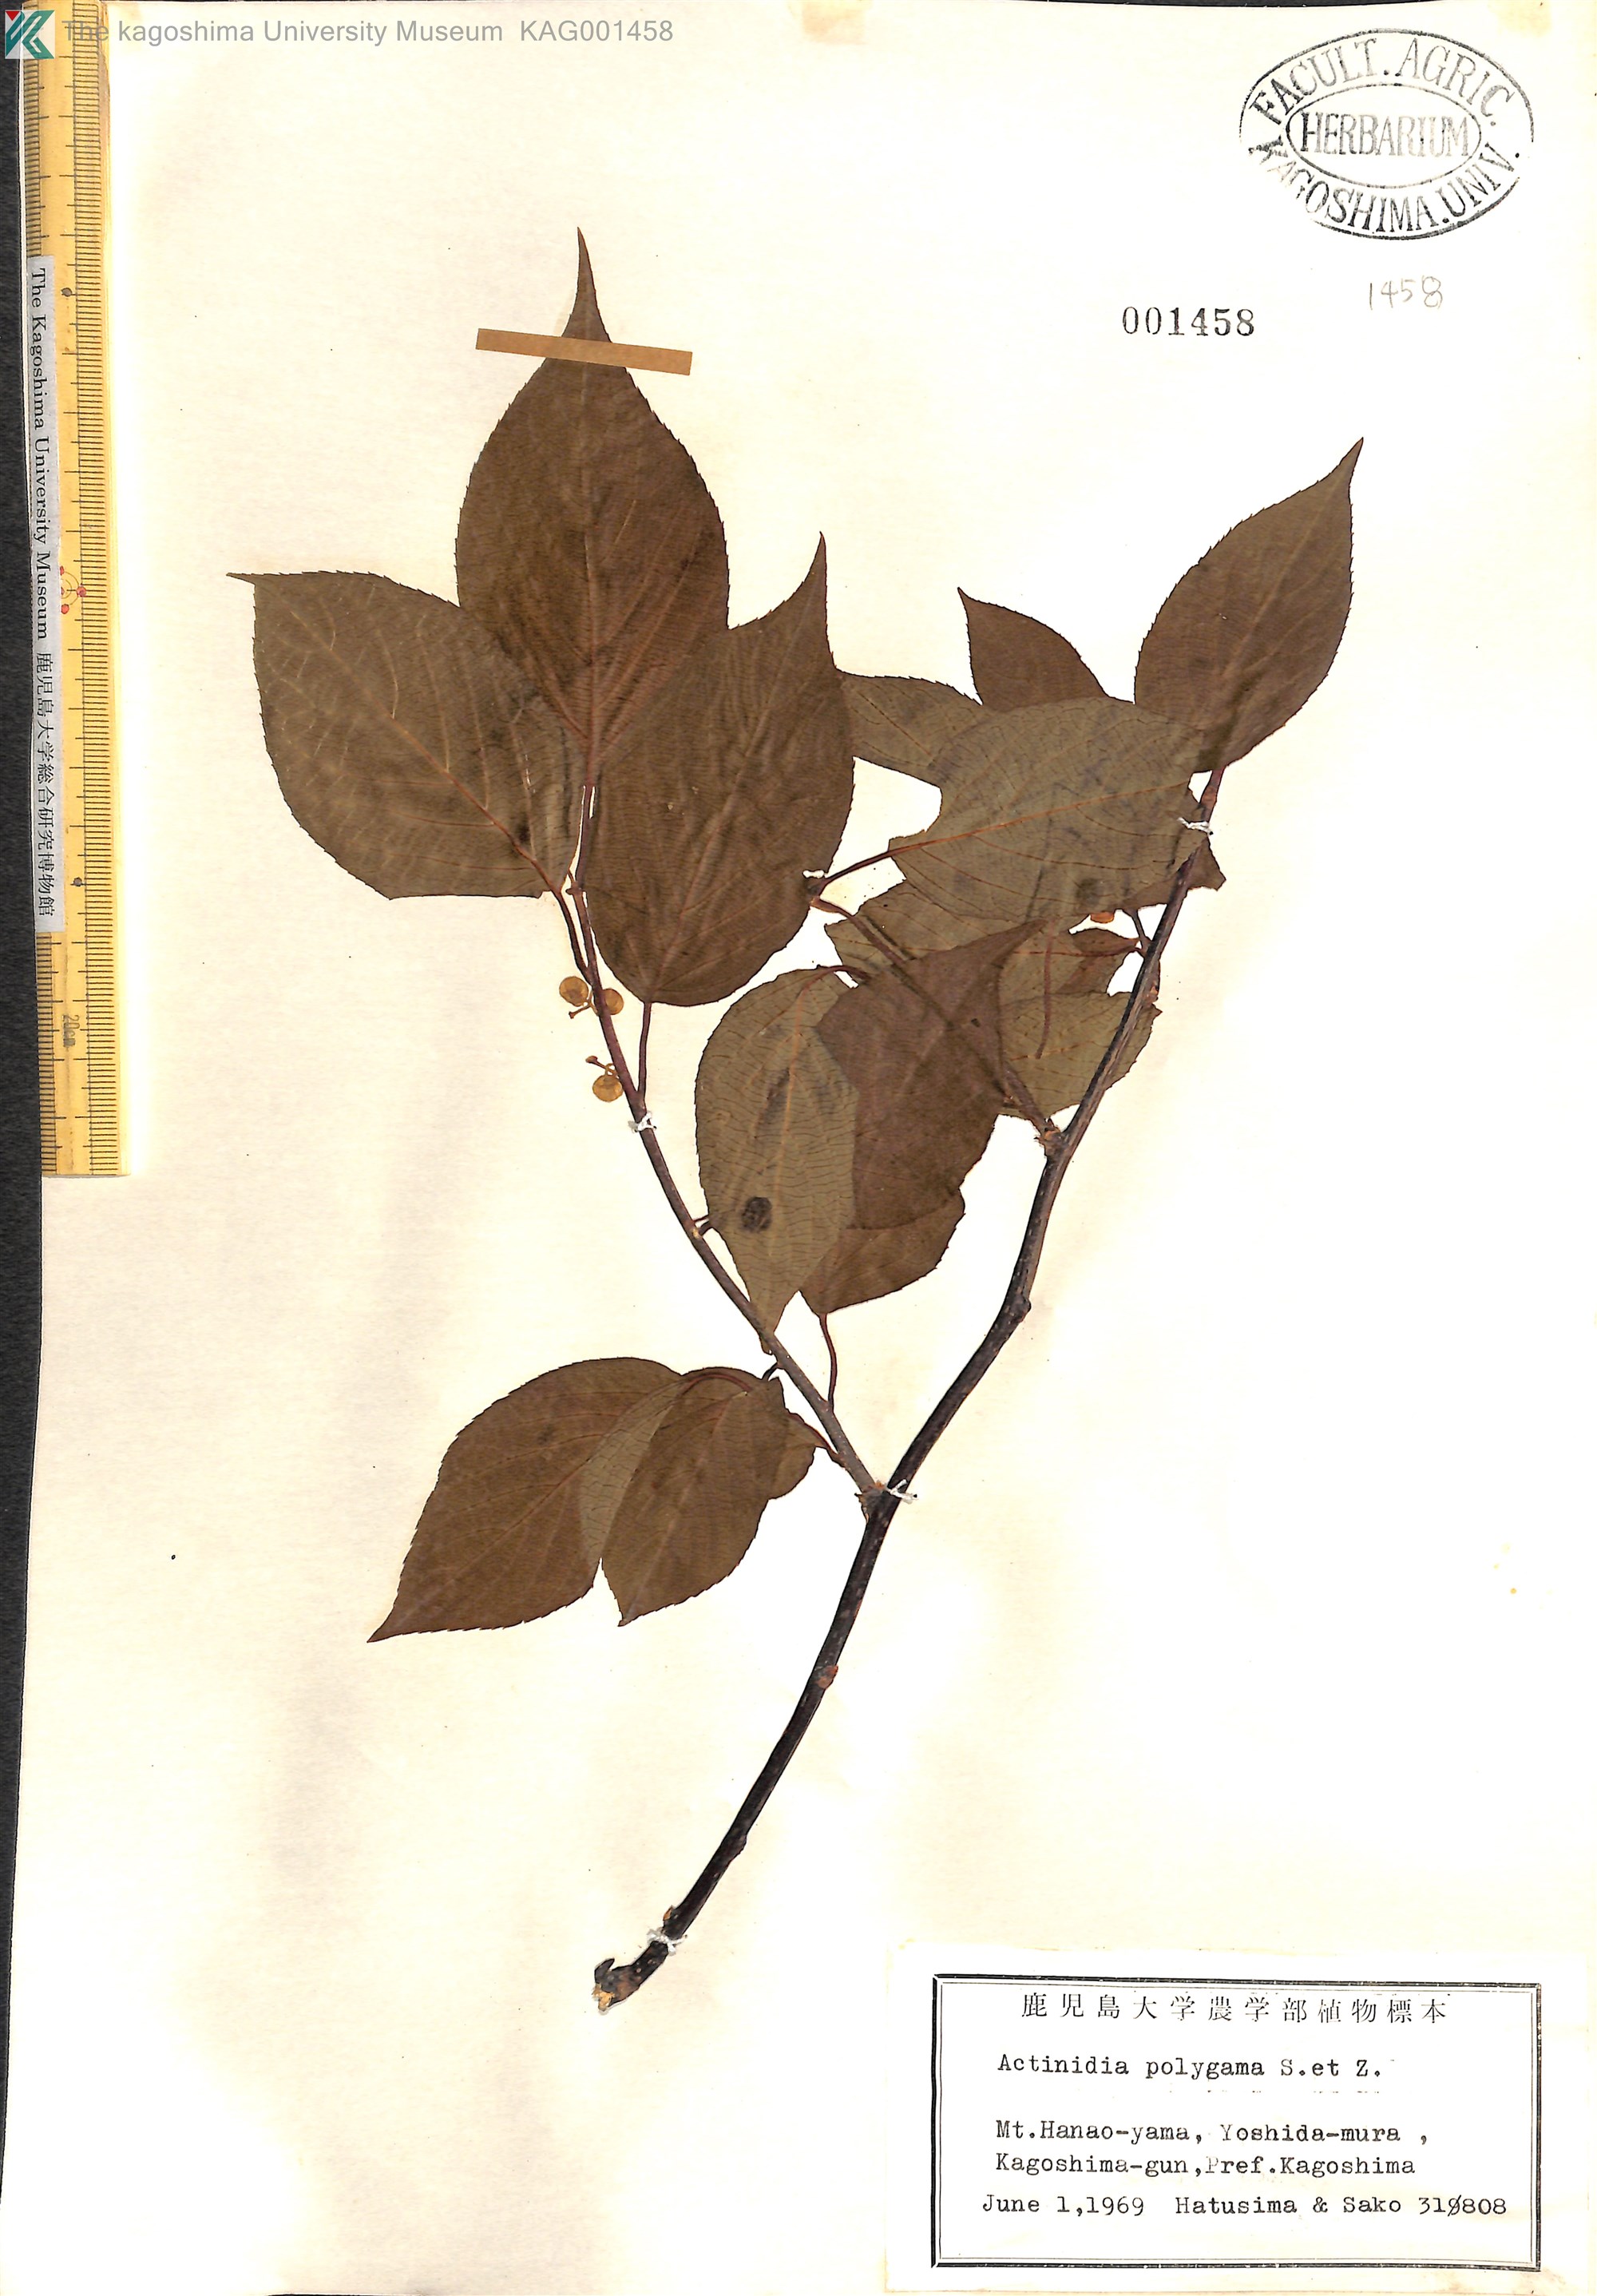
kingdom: Plantae
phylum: Tracheophyta
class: Magnoliopsida
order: Ericales
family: Actinidiaceae
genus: Actinidia
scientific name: Actinidia polygama
